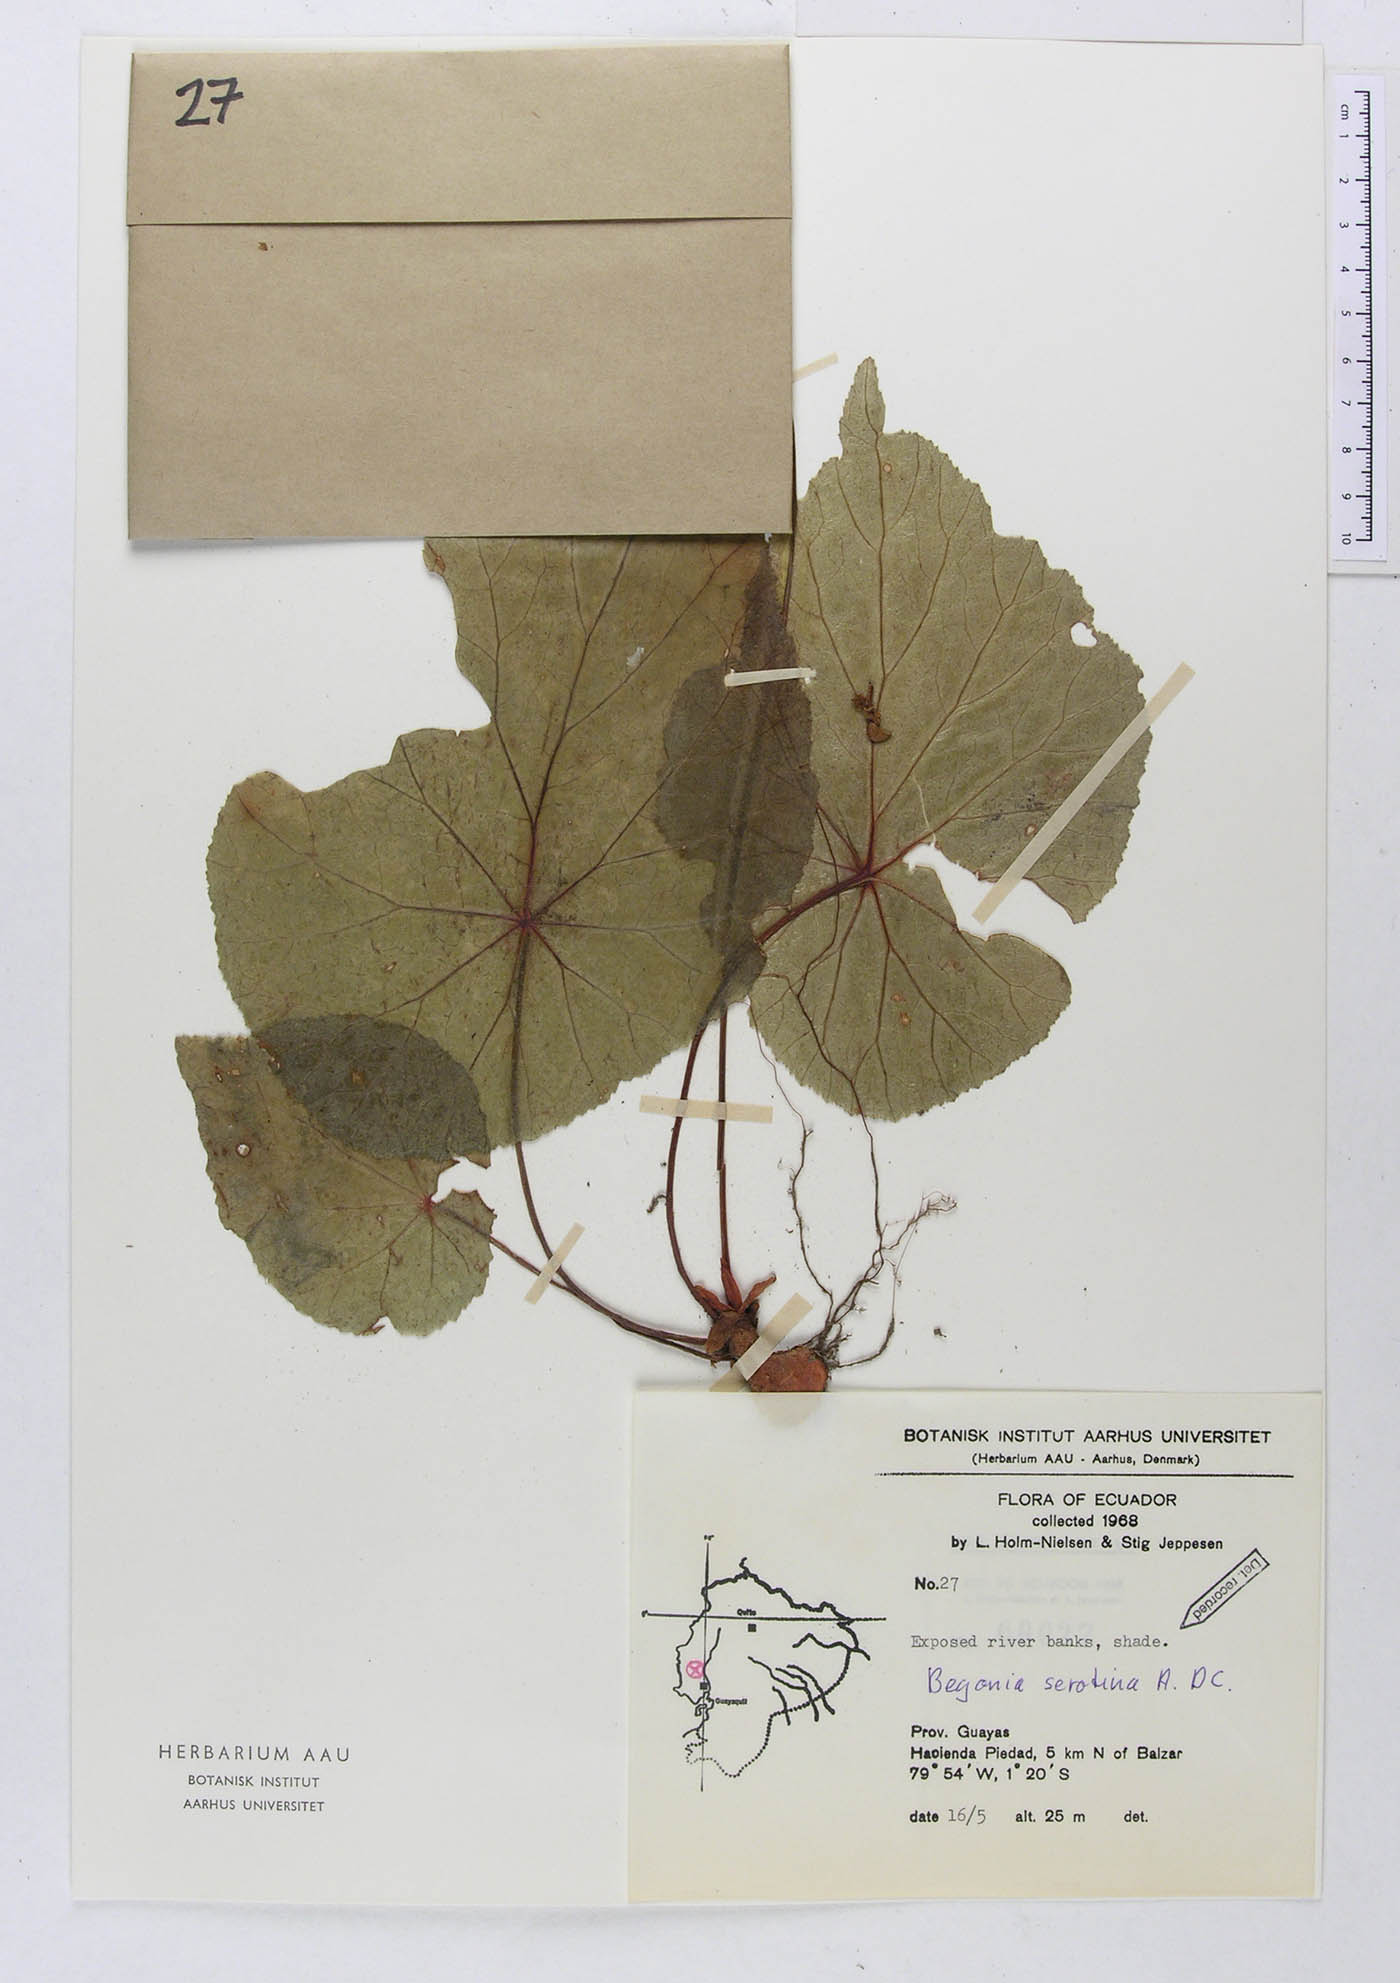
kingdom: Plantae
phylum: Tracheophyta
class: Magnoliopsida
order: Cucurbitales
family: Begoniaceae
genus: Begonia
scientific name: Begonia serotina
